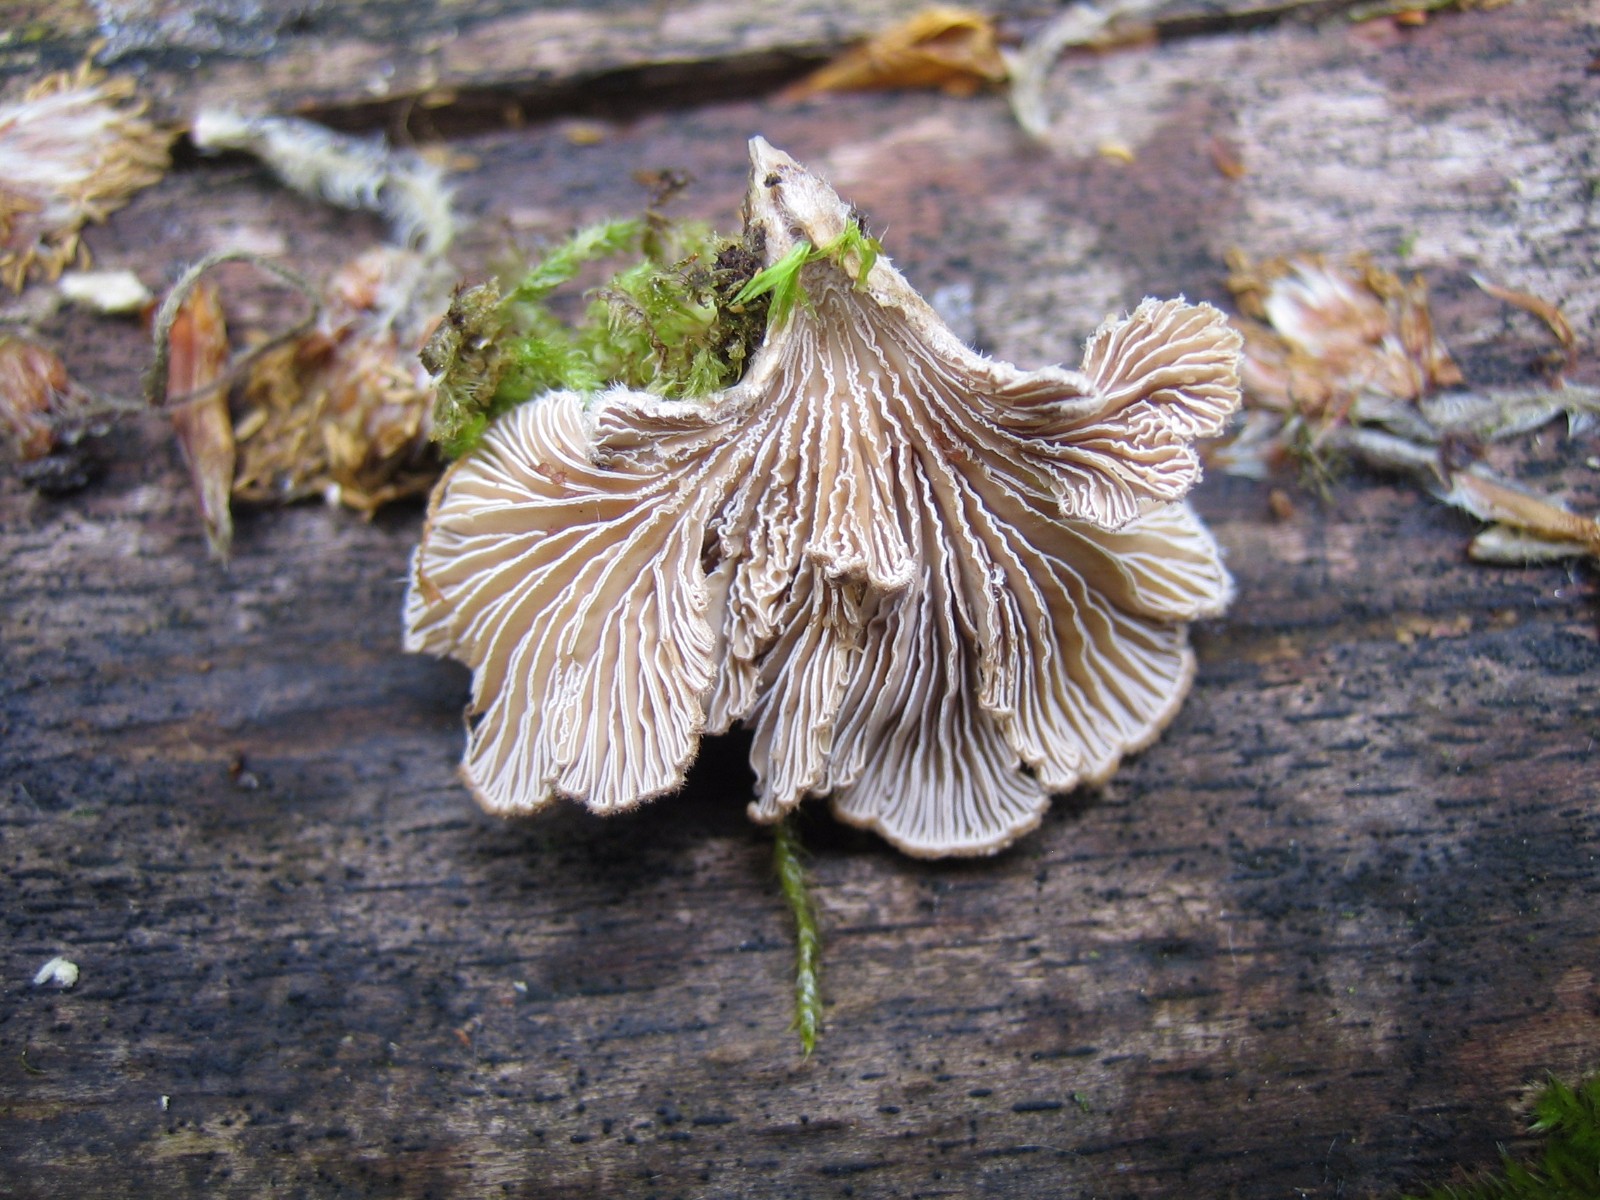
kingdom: Fungi
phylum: Basidiomycota
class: Agaricomycetes
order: Agaricales
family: Schizophyllaceae
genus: Schizophyllum
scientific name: Schizophyllum commune
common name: kløvblad
